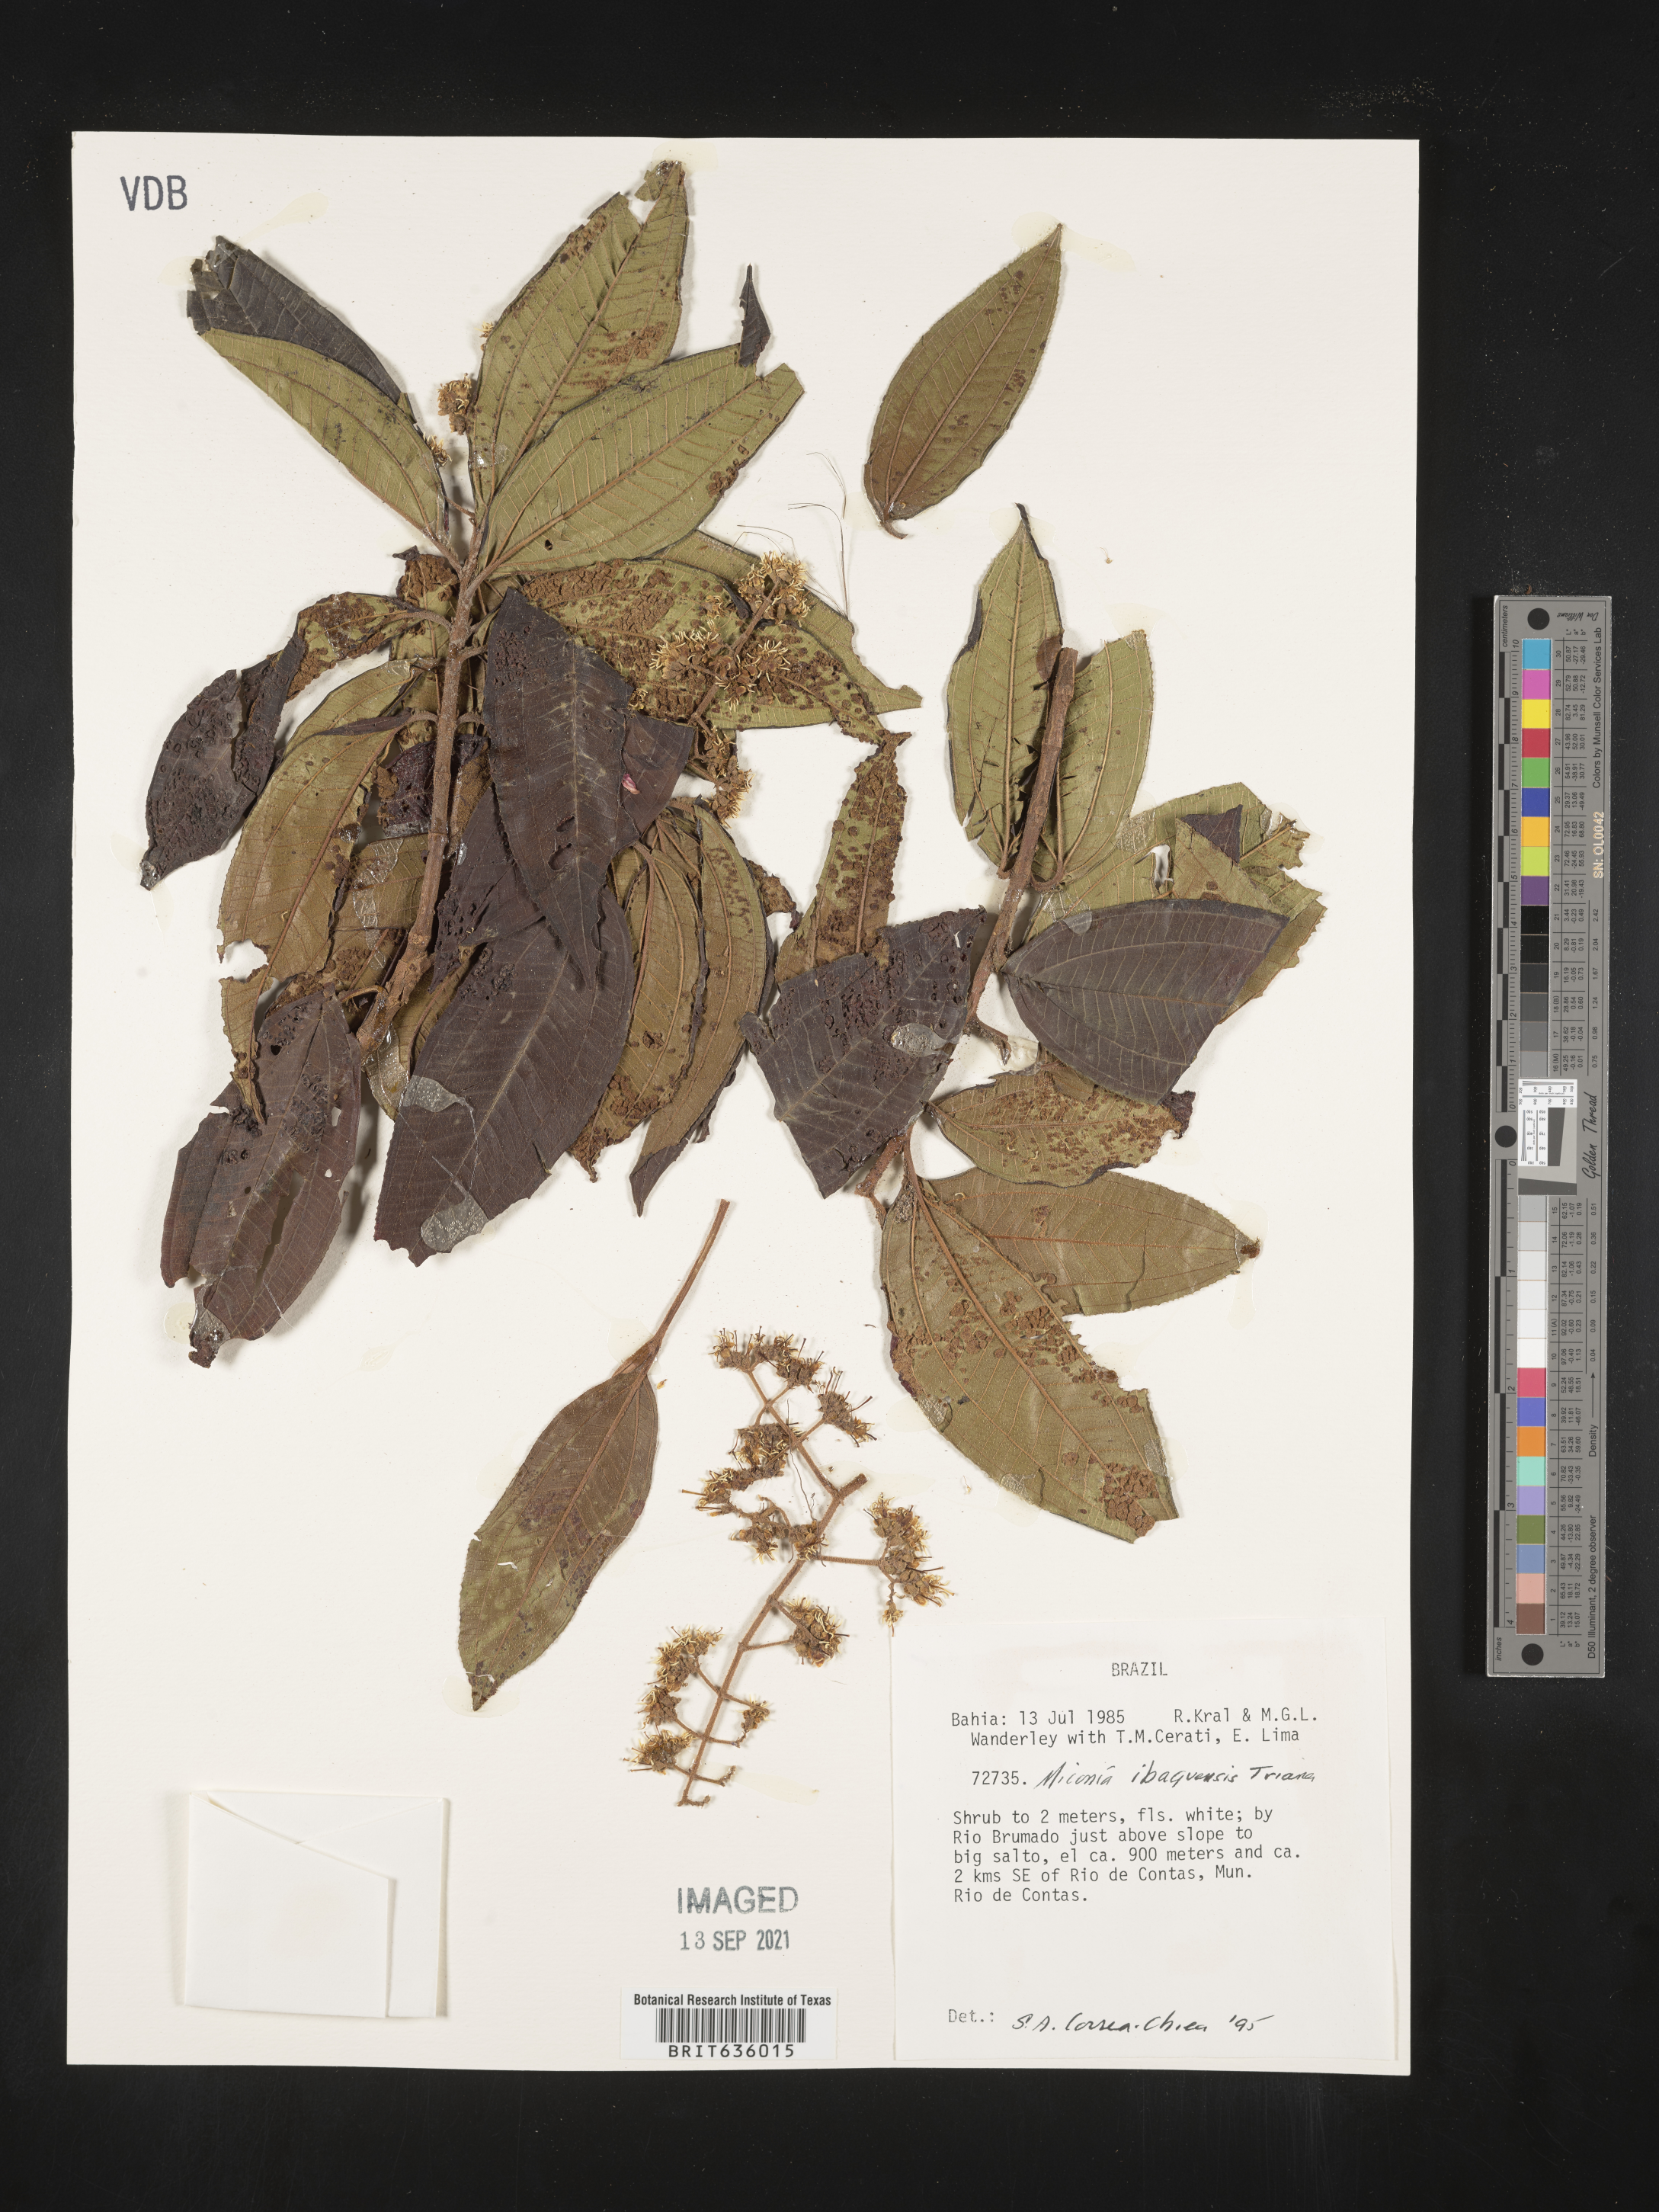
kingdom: Plantae
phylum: Tracheophyta
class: Magnoliopsida
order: Myrtales
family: Melastomataceae
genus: Miconia
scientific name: Miconia
